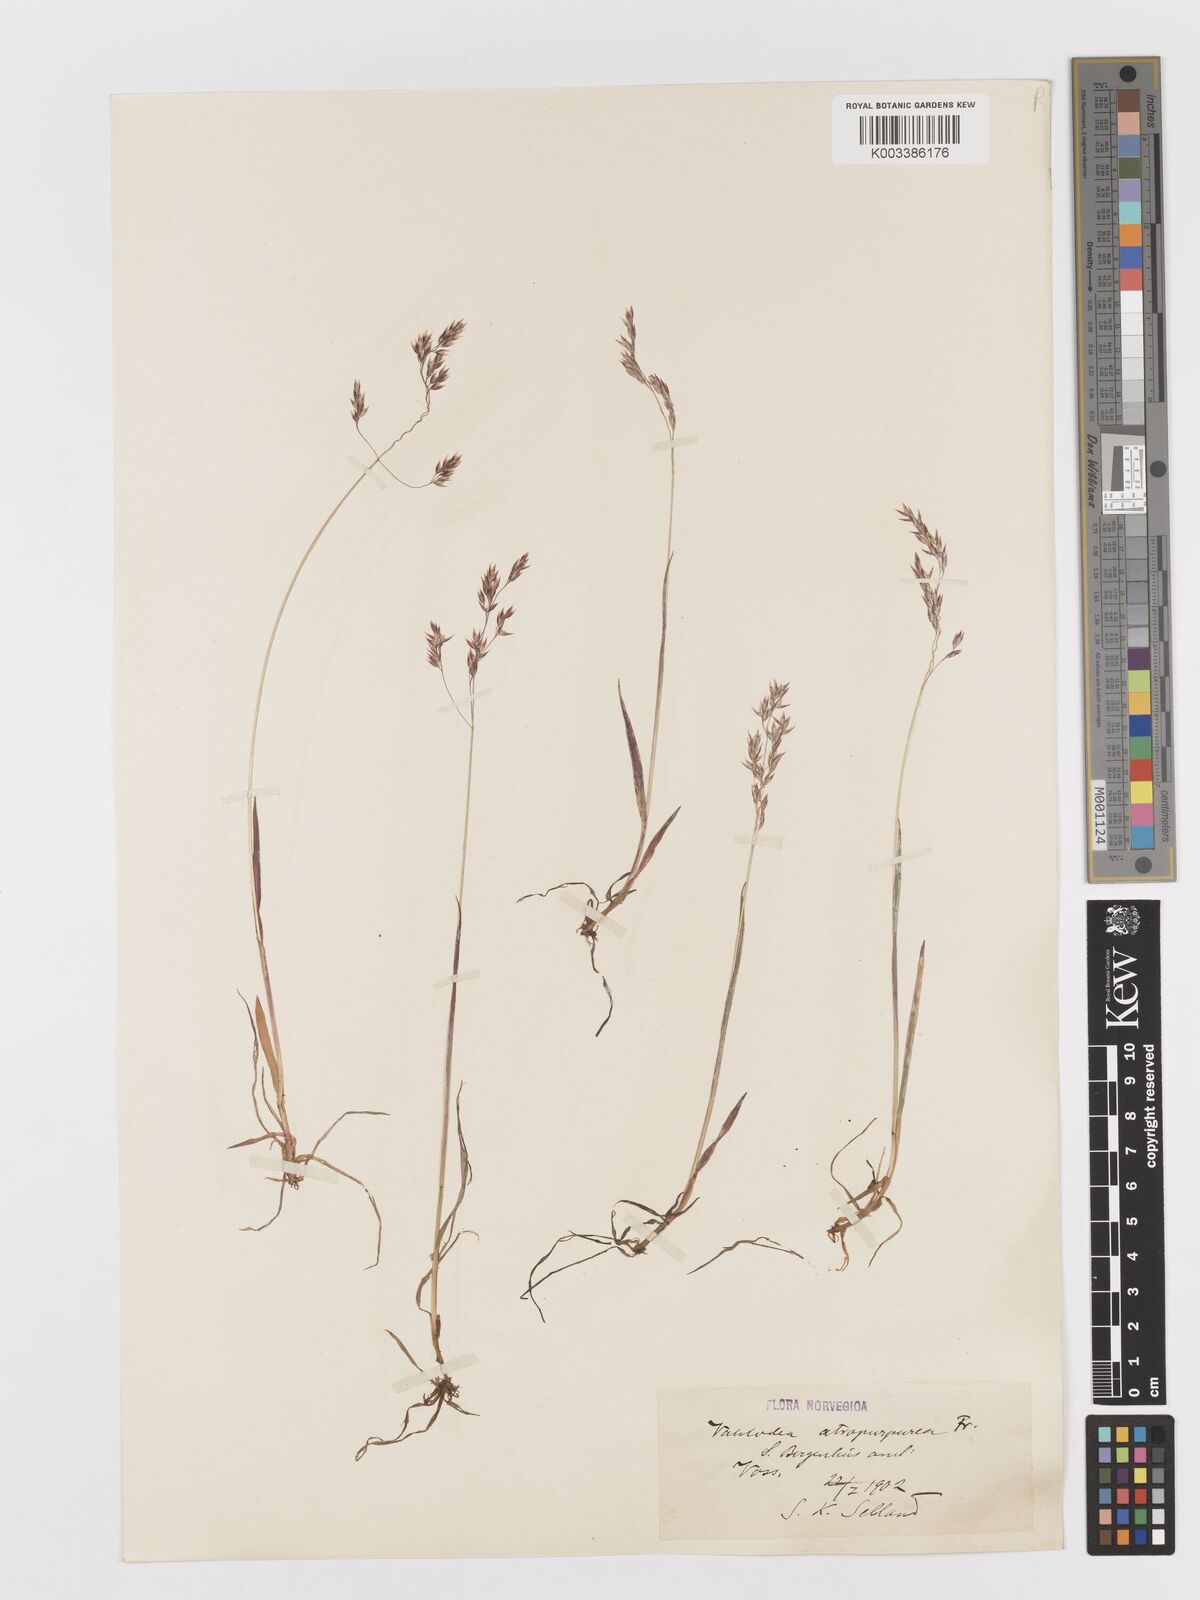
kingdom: Plantae
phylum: Tracheophyta
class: Liliopsida
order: Poales
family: Poaceae
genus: Vahlodea
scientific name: Vahlodea atropurpurea
